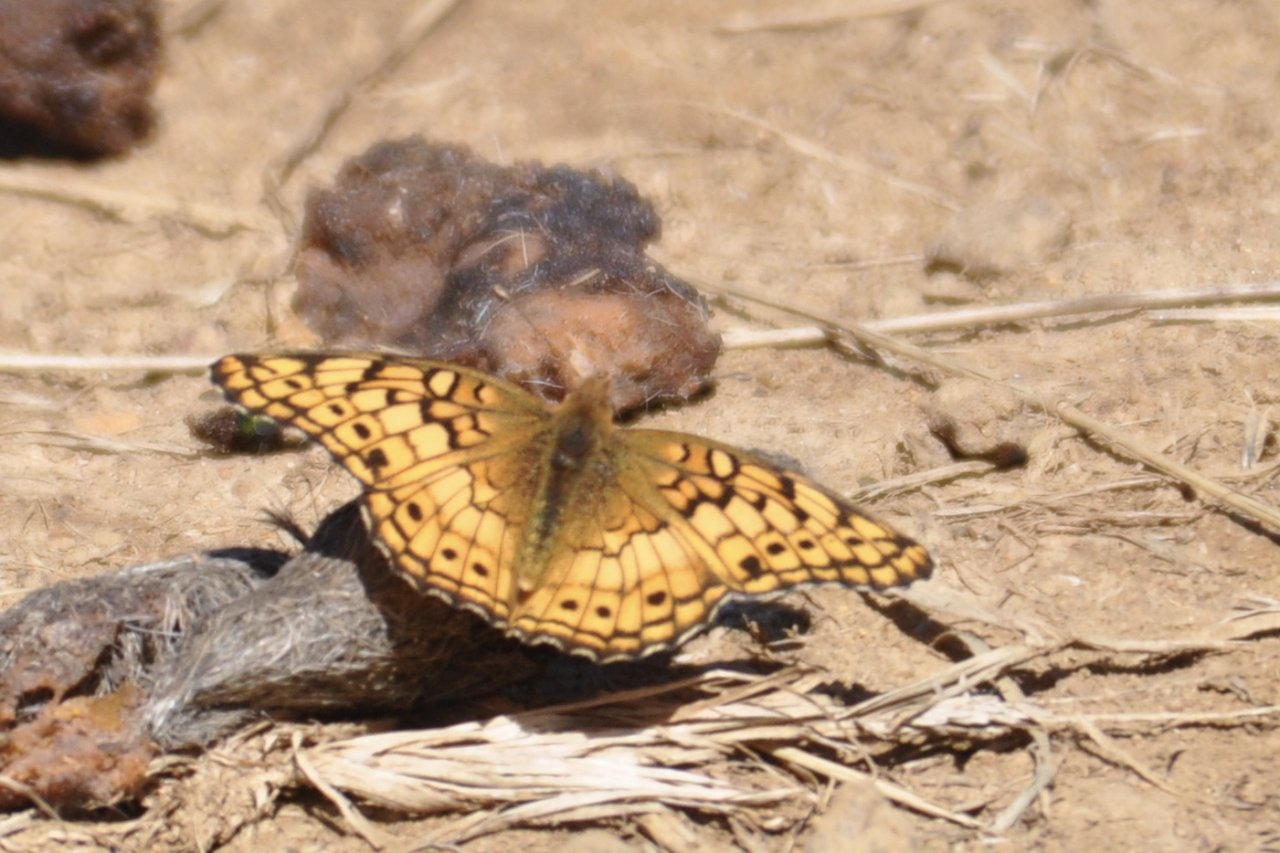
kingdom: Animalia
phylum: Arthropoda
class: Insecta
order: Lepidoptera
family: Nymphalidae
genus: Euptoieta
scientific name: Euptoieta claudia
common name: Variegated Fritillary
